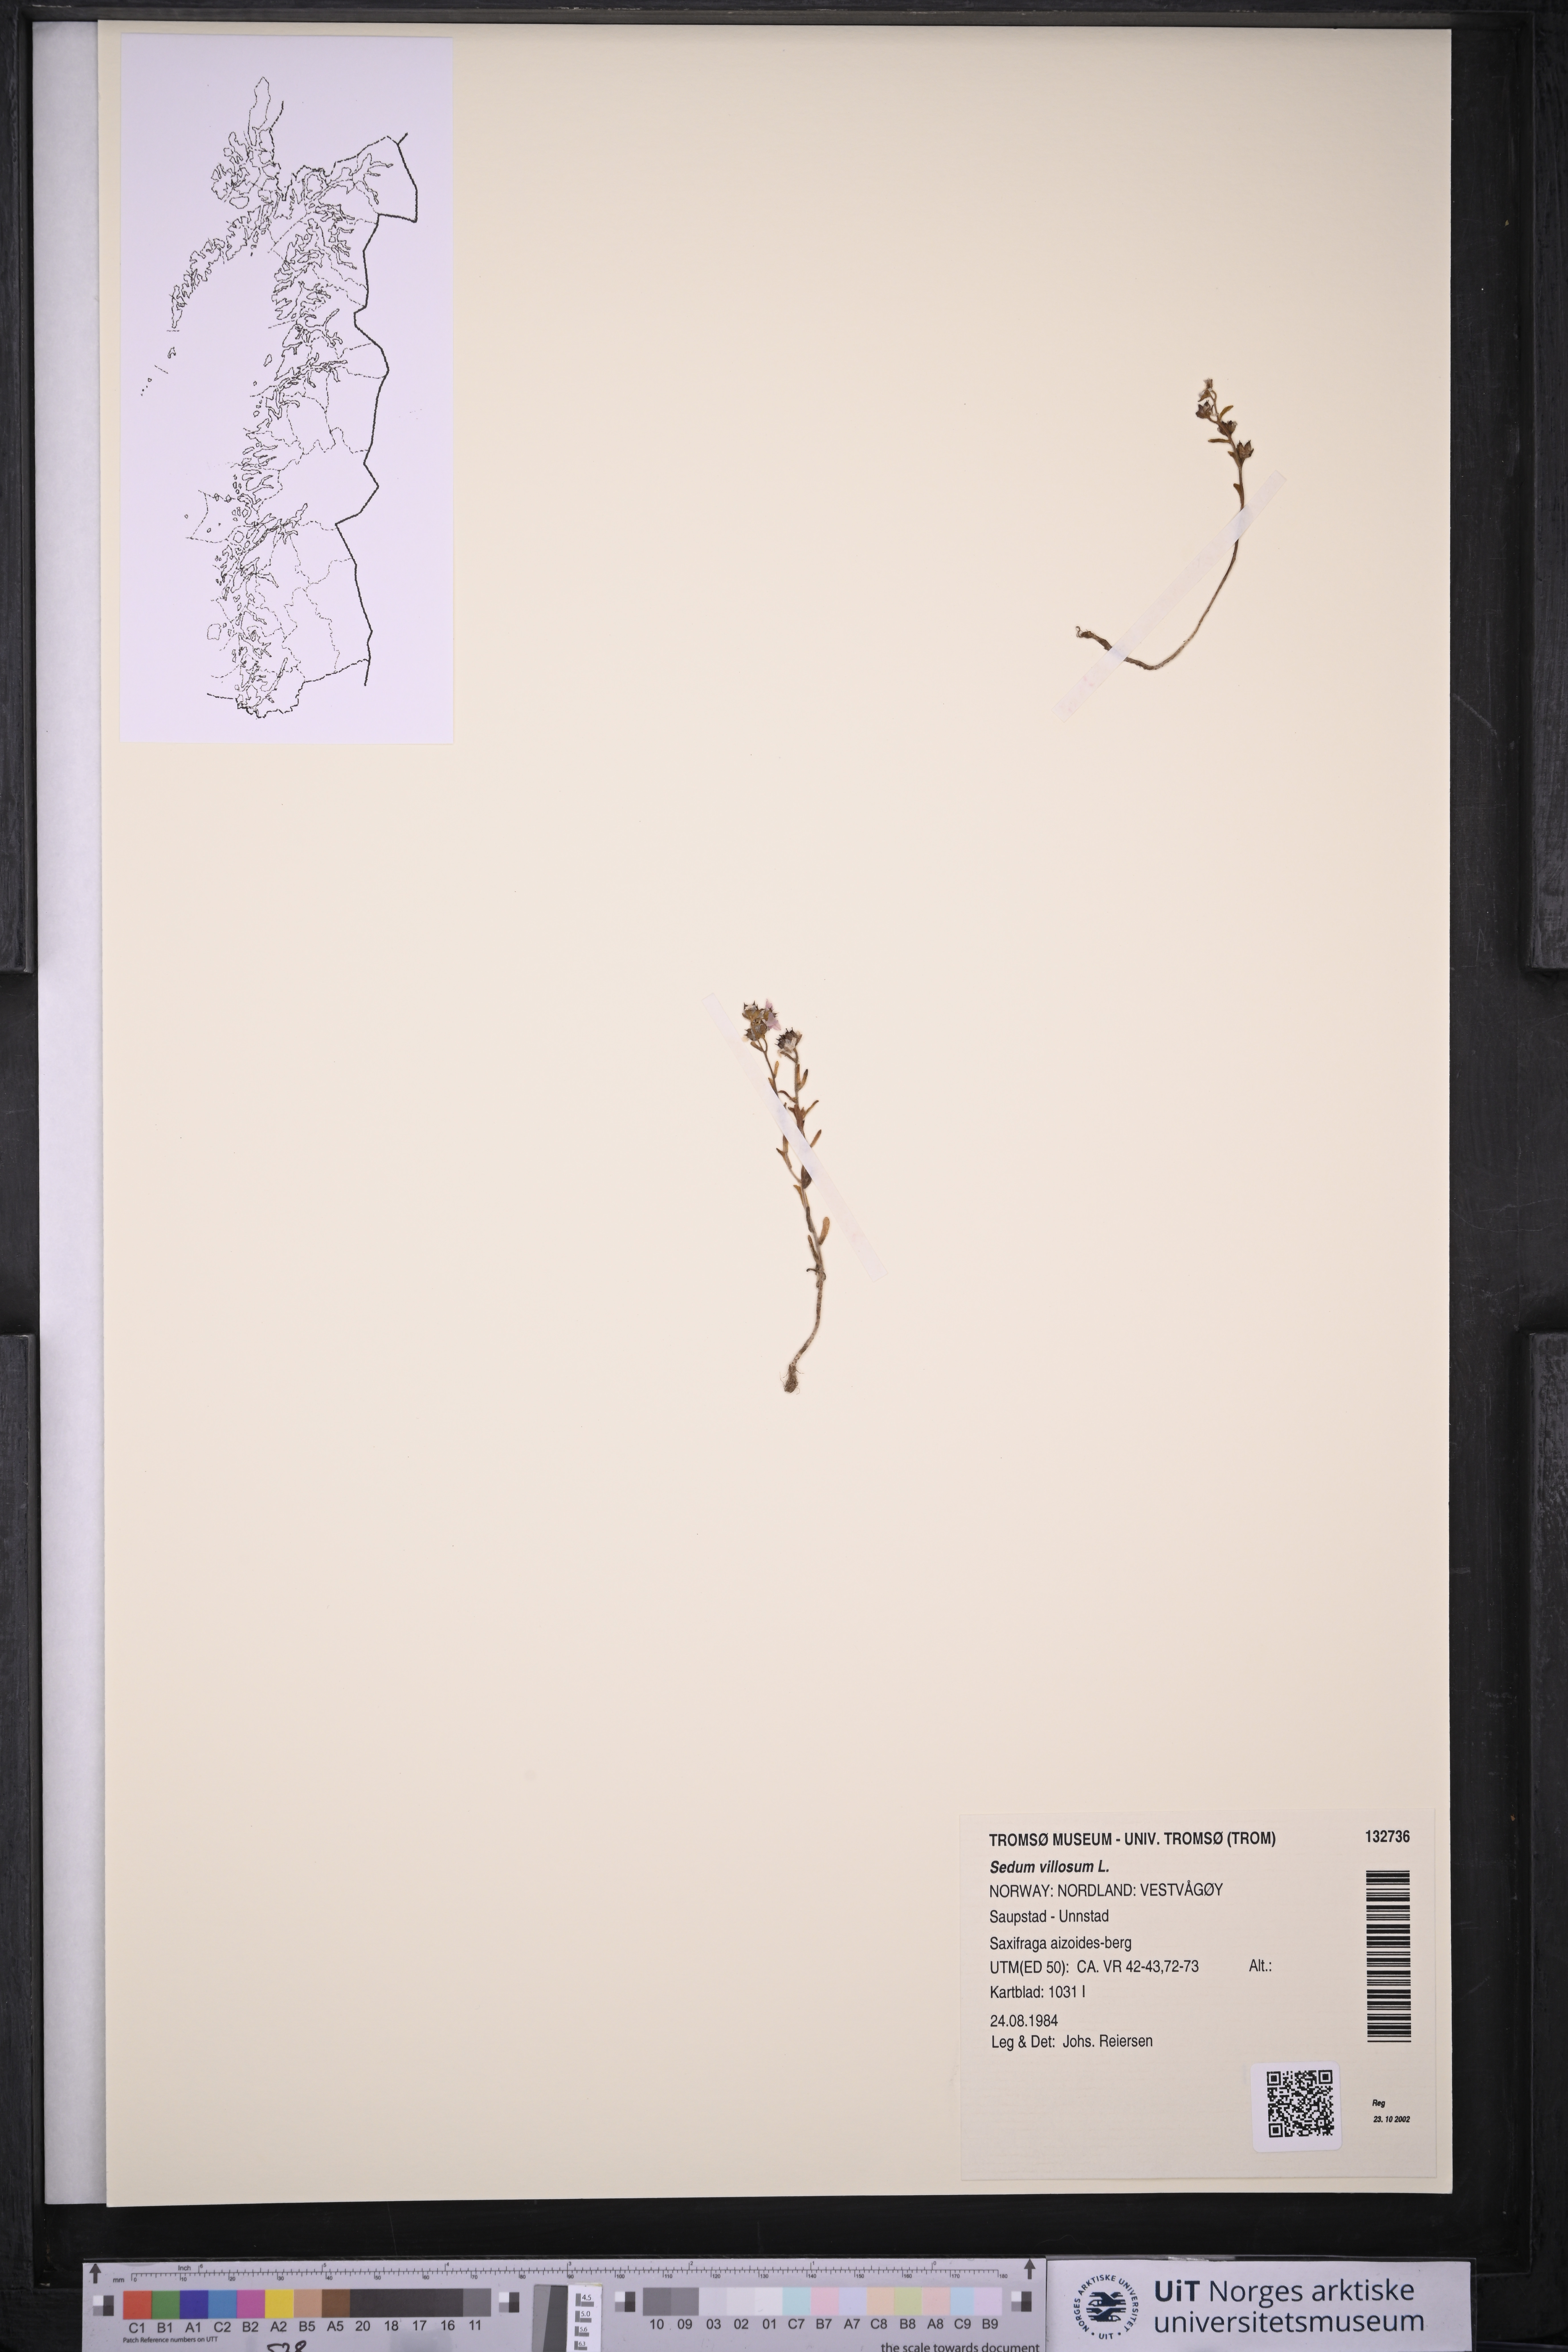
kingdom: Plantae
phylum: Tracheophyta
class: Magnoliopsida
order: Saxifragales
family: Crassulaceae
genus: Sedum
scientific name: Sedum villosum
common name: Hairy stonecrop
